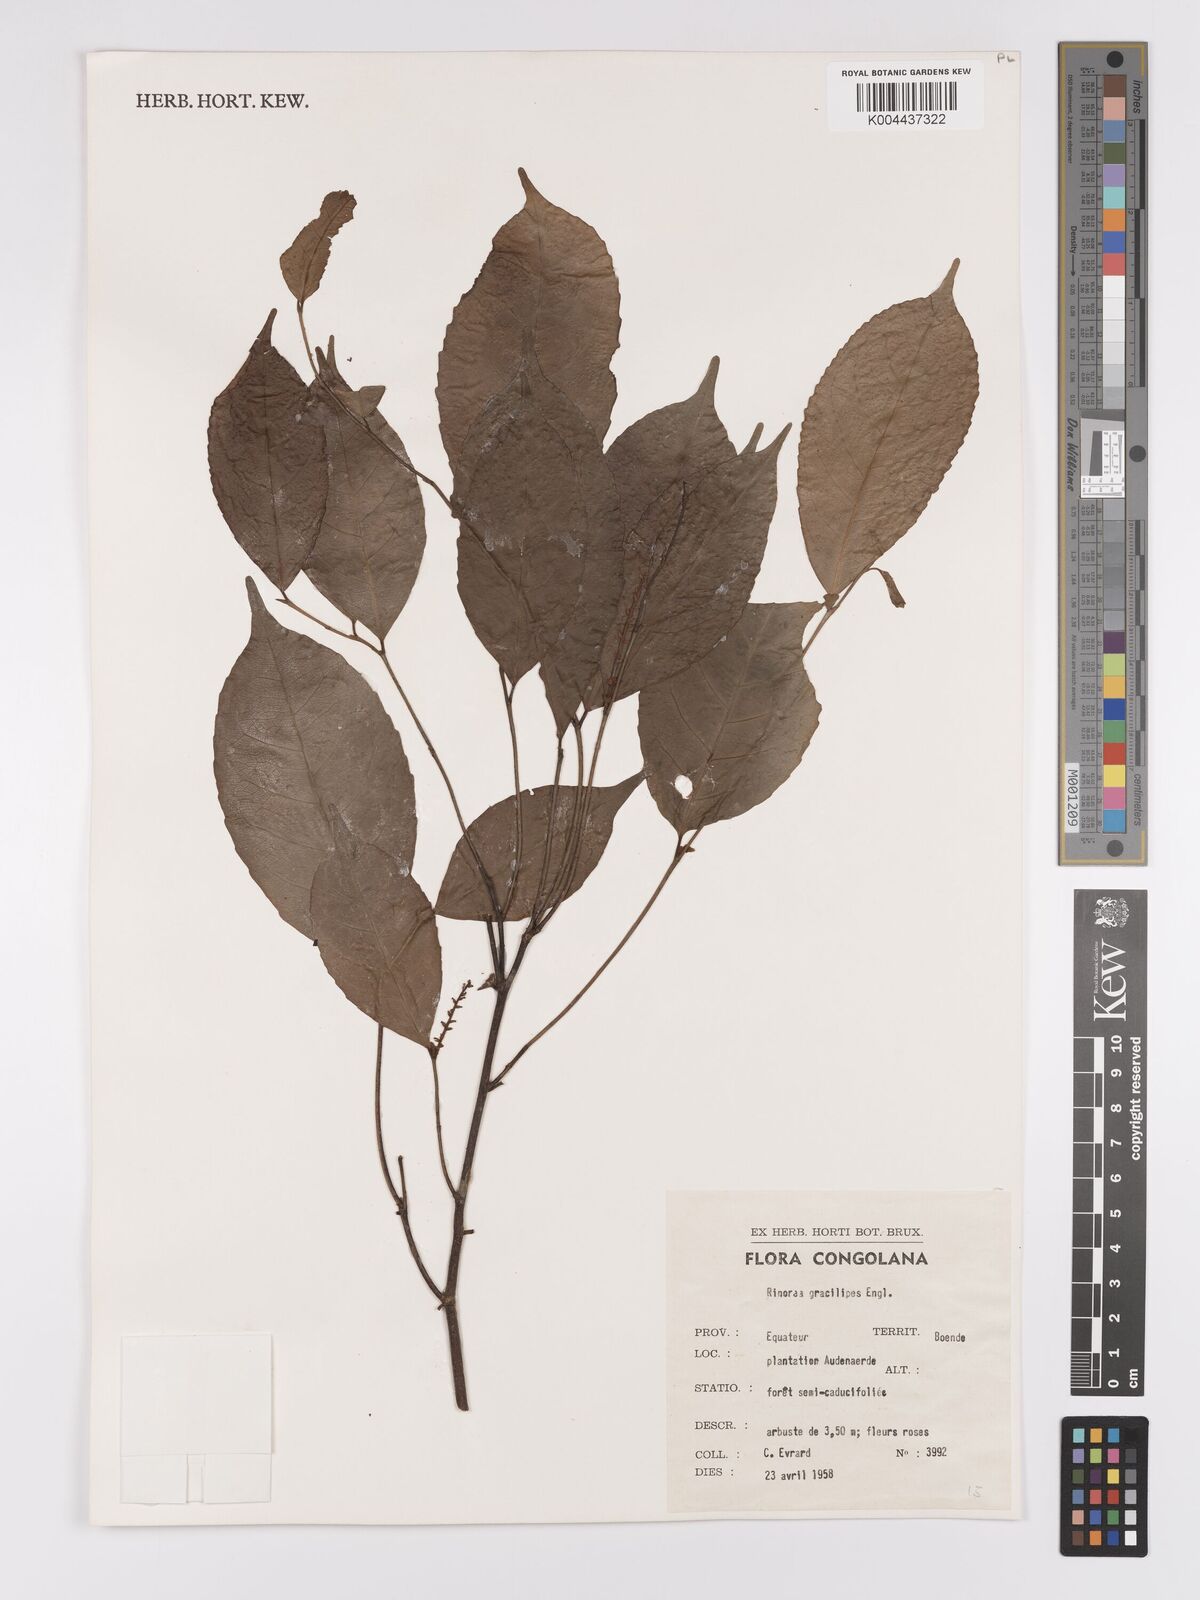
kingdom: Plantae
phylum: Tracheophyta
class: Magnoliopsida
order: Malpighiales
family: Violaceae
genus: Rinorea
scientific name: Rinorea angustifolia
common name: White violet-bush
